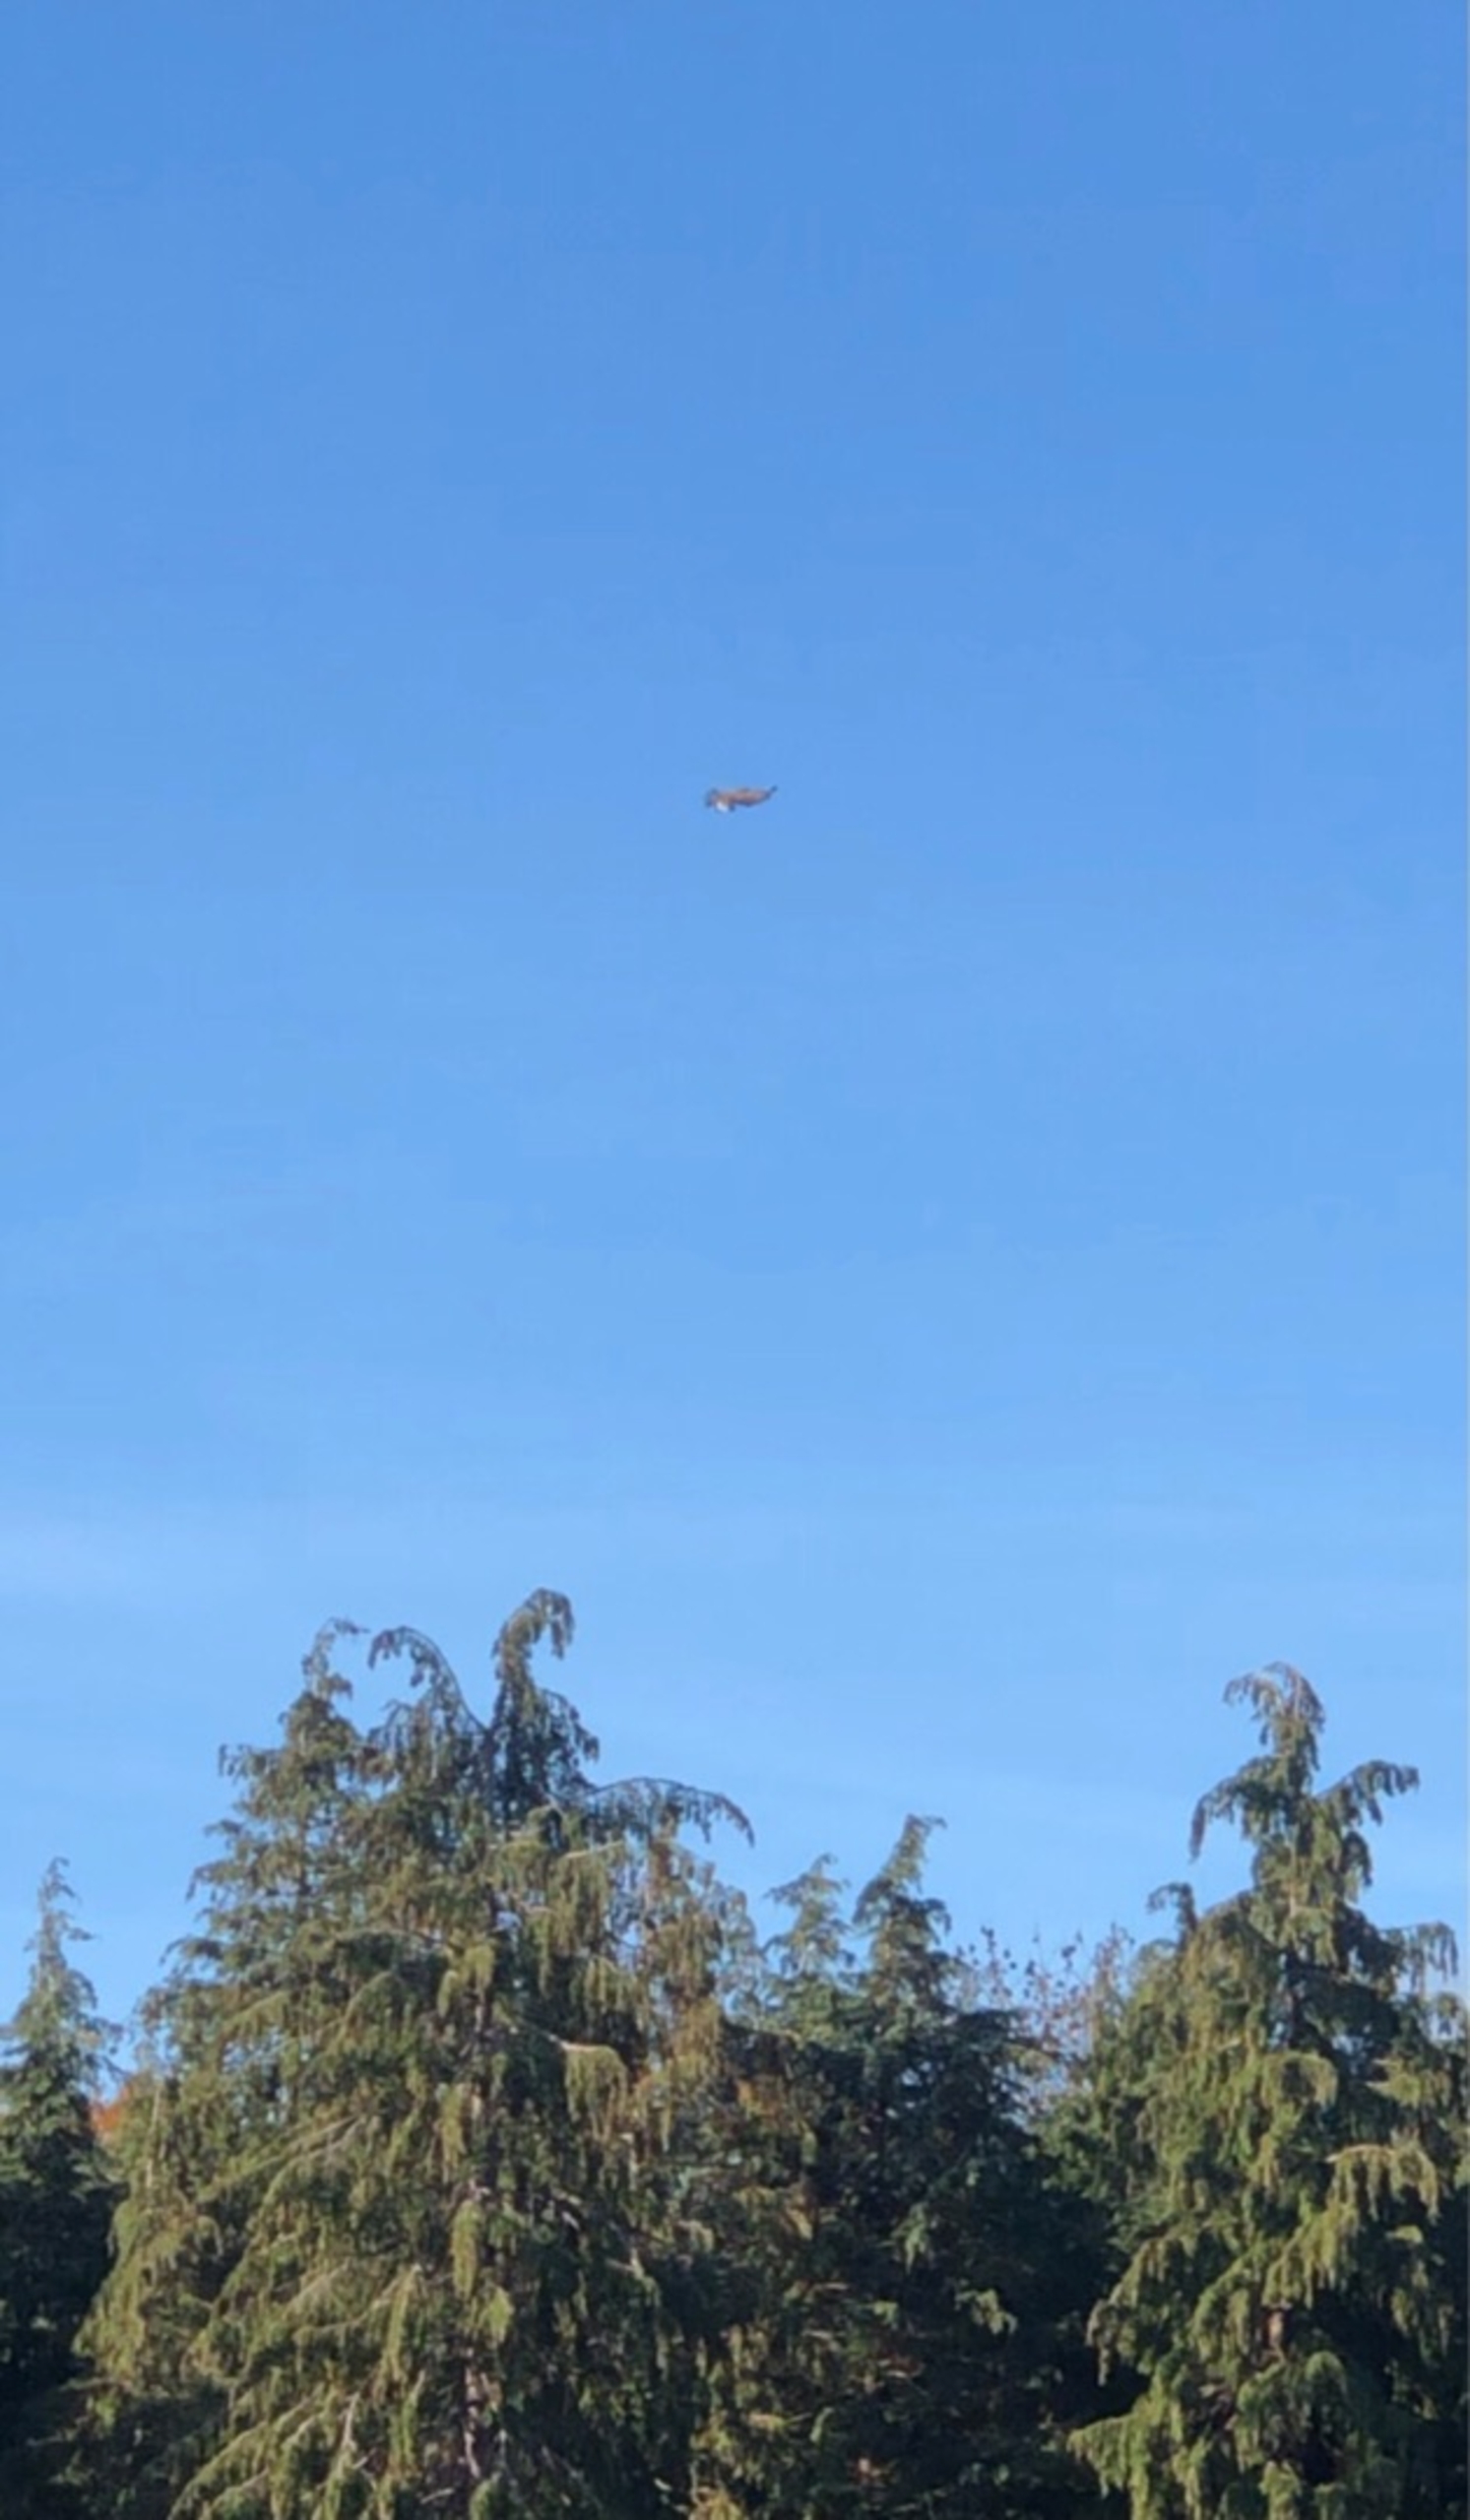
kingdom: Animalia
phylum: Chordata
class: Aves
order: Accipitriformes
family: Accipitridae
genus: Haliaeetus
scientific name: Haliaeetus albicilla
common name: Havørn
